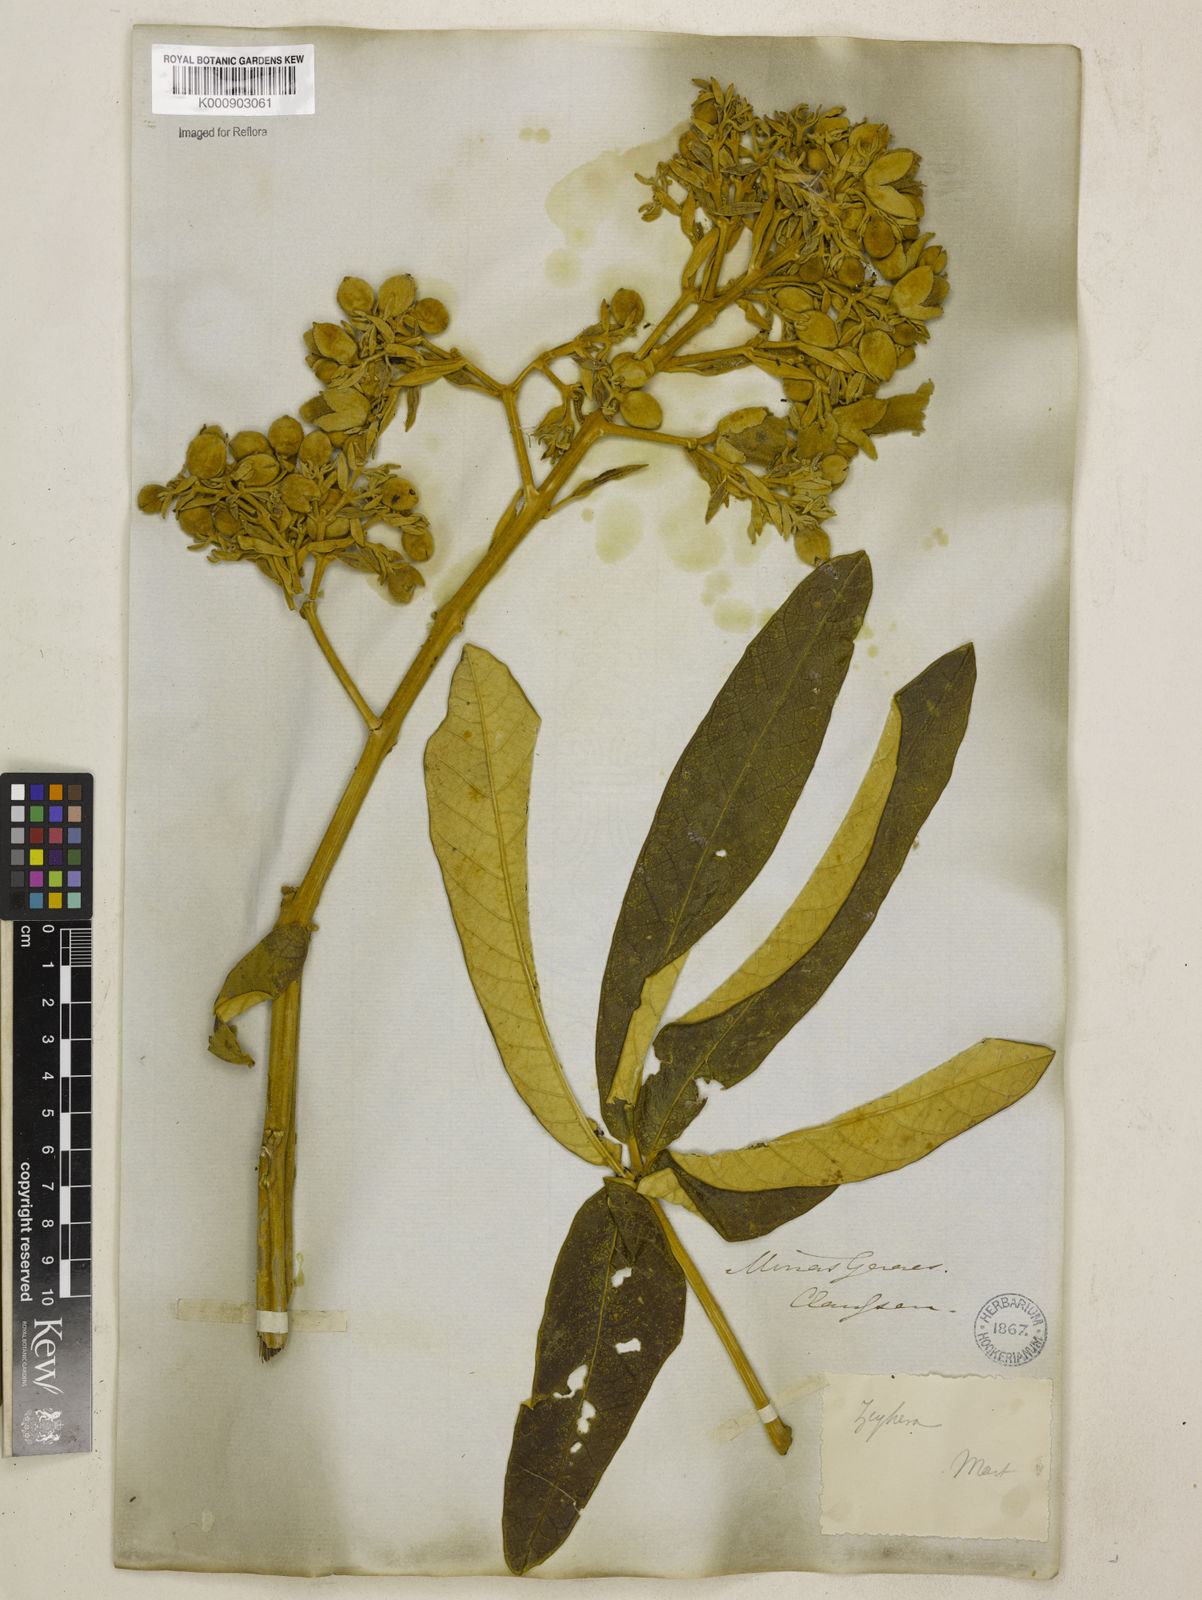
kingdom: Plantae
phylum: Tracheophyta
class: Magnoliopsida
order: Lamiales
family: Bignoniaceae
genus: Zeyheria
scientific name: Zeyheria
